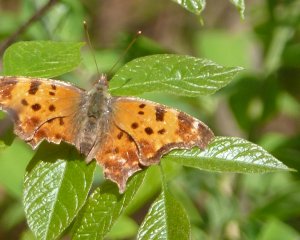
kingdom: Animalia
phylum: Arthropoda
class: Insecta
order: Lepidoptera
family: Nymphalidae
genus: Polygonia
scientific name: Polygonia comma
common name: Eastern Comma
